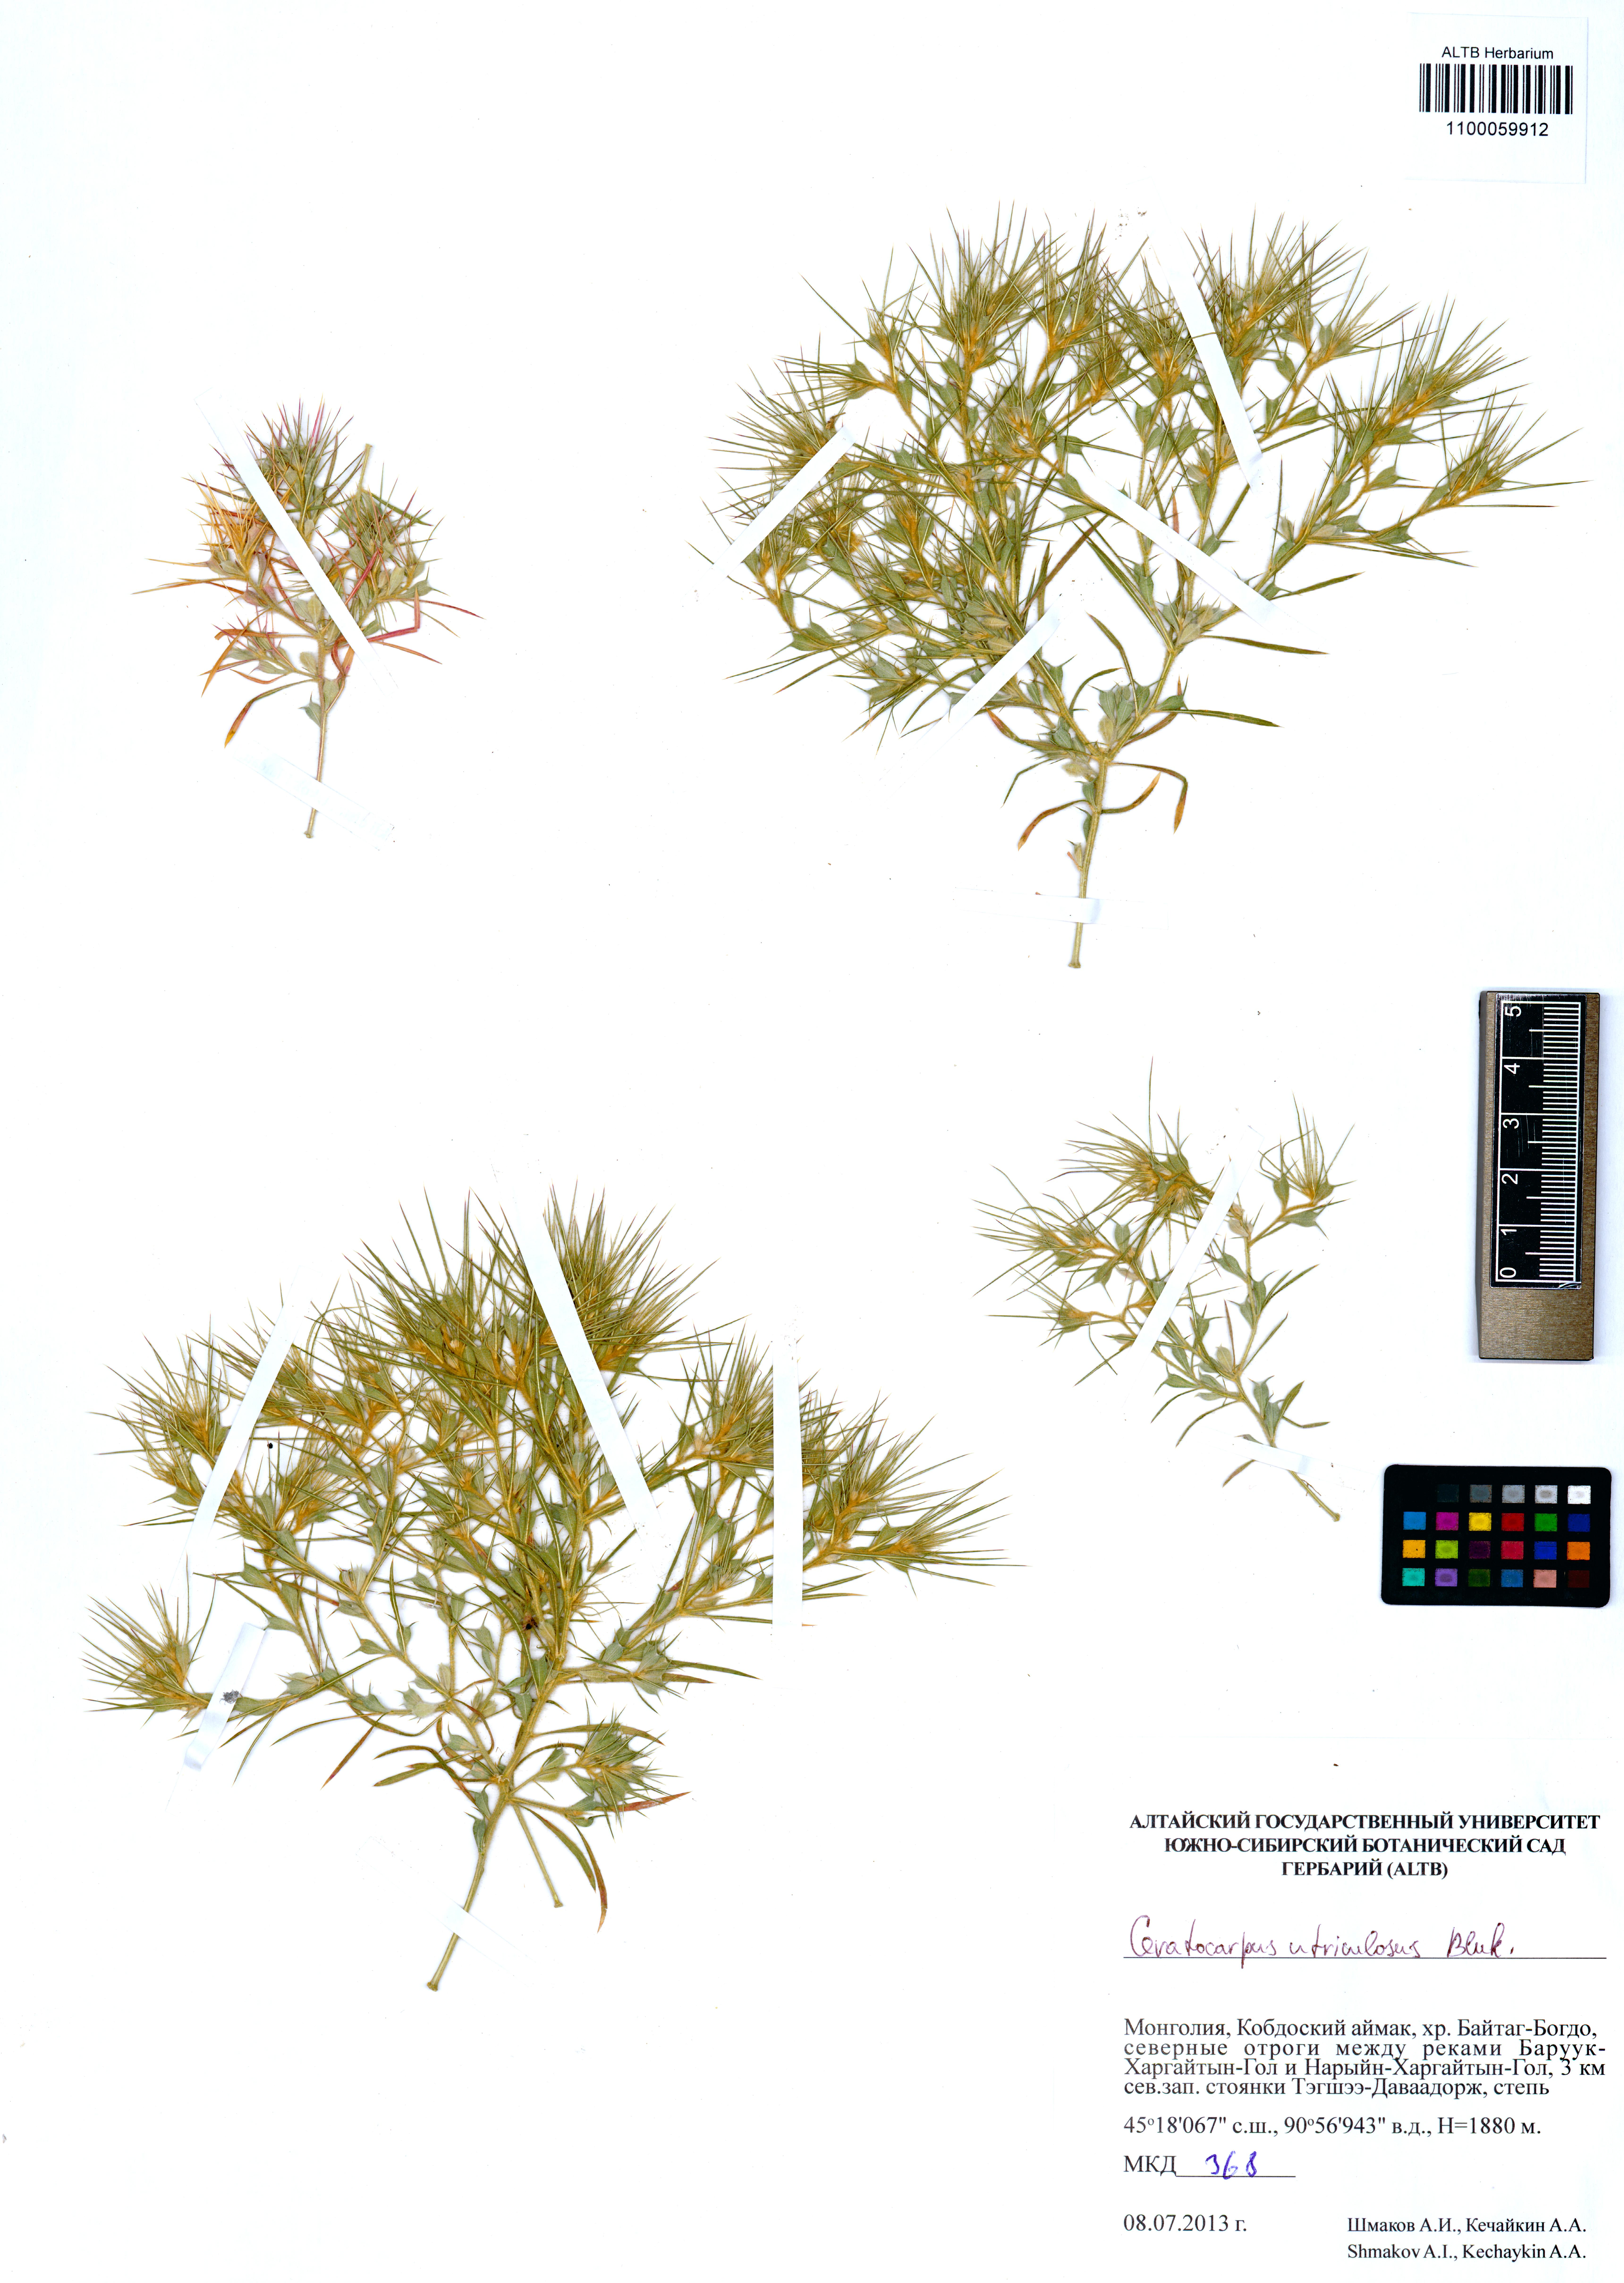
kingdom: Plantae
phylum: Tracheophyta
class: Magnoliopsida
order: Caryophyllales
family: Amaranthaceae
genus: Ceratocarpus
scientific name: Ceratocarpus arenarius
